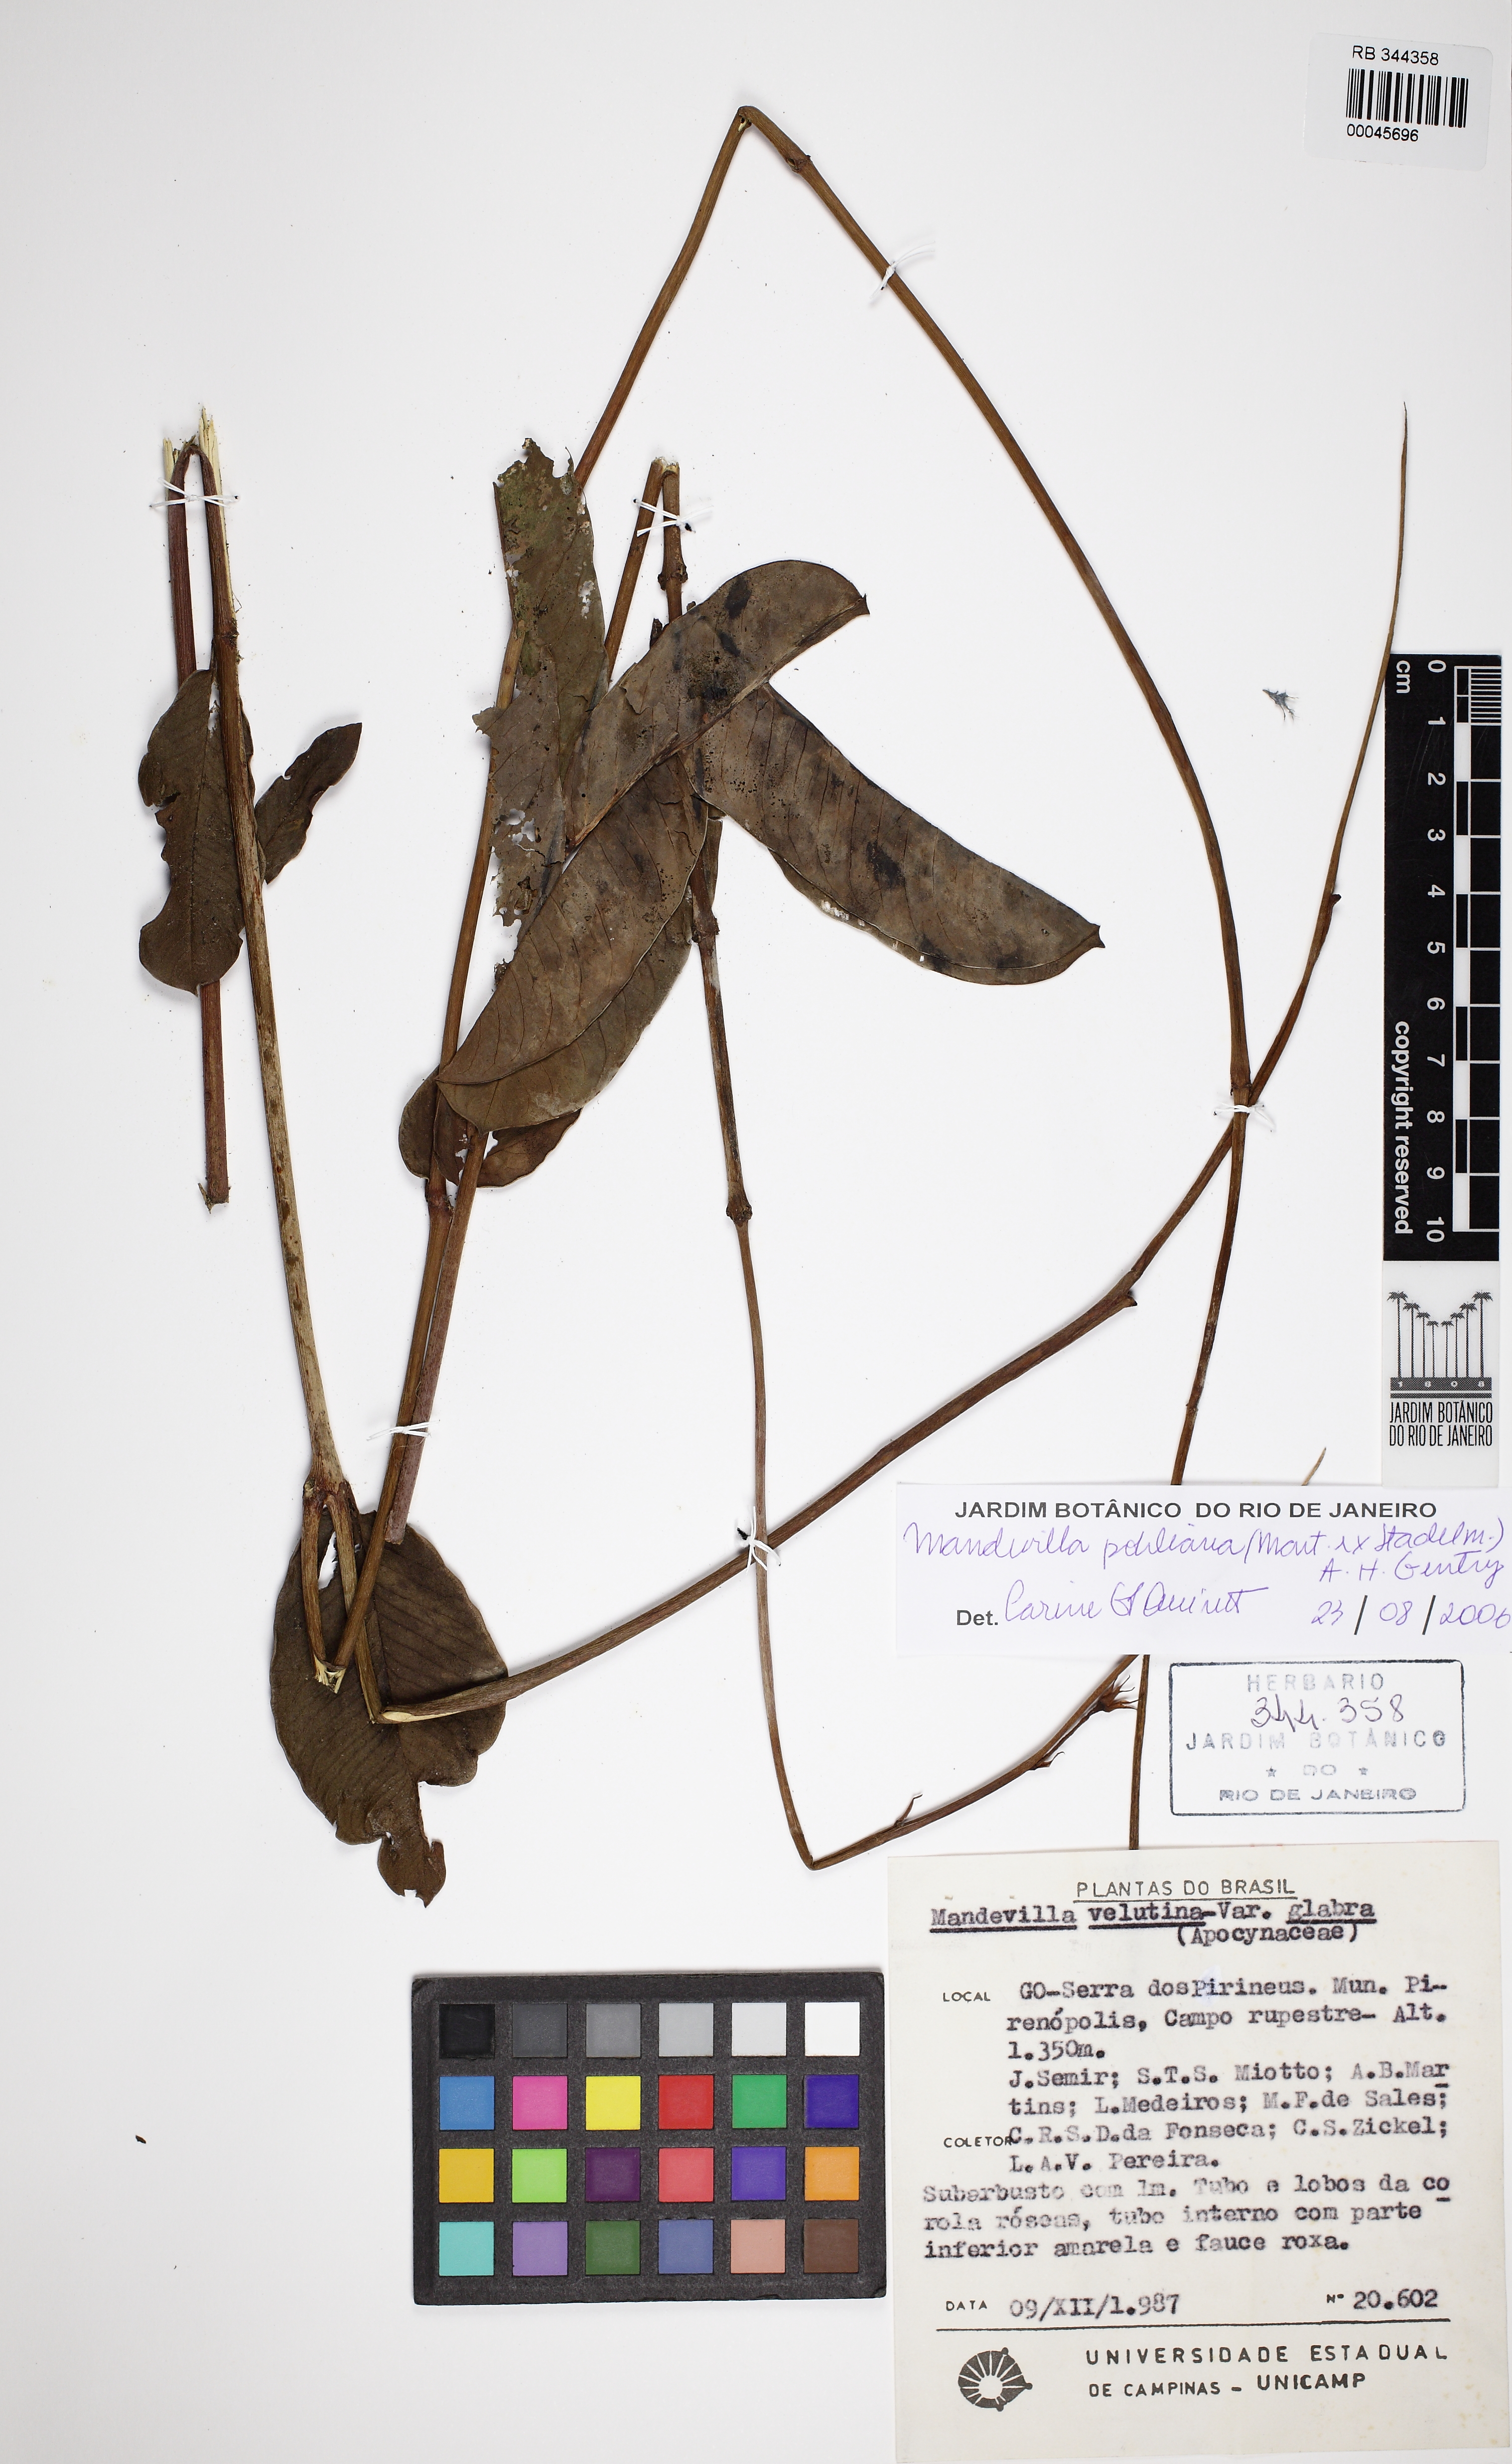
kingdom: Plantae
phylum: Tracheophyta
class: Magnoliopsida
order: Gentianales
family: Apocynaceae
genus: Mandevilla
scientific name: Mandevilla pohliana
